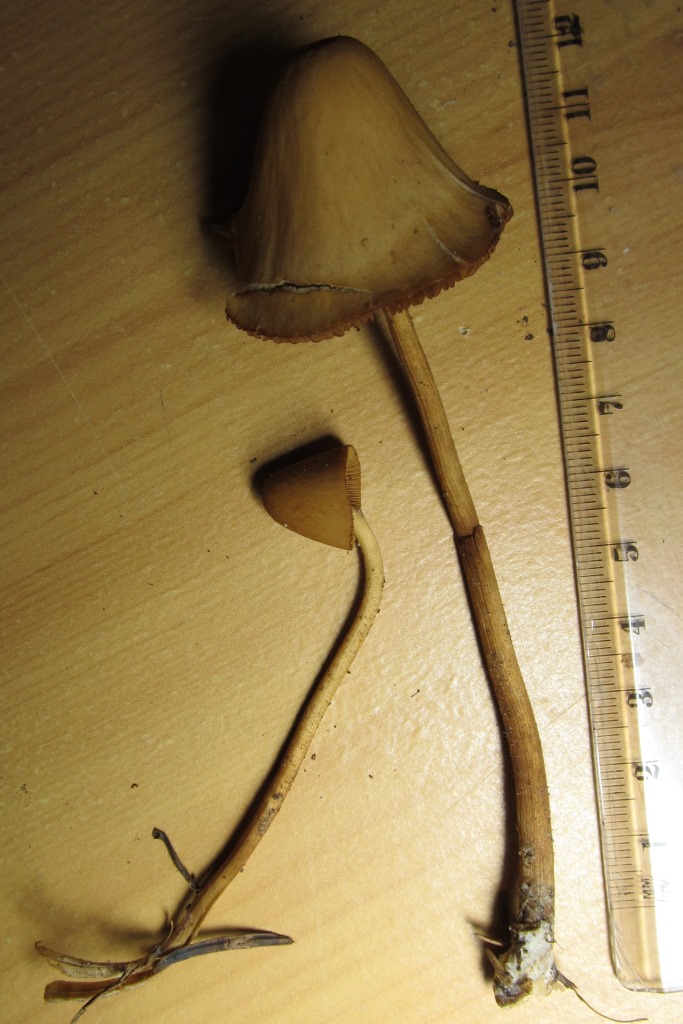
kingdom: Fungi
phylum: Basidiomycota
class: Agaricomycetes
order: Agaricales
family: Bolbitiaceae
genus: Conocybe
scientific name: Conocybe subpubescens
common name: krat-keglehat
